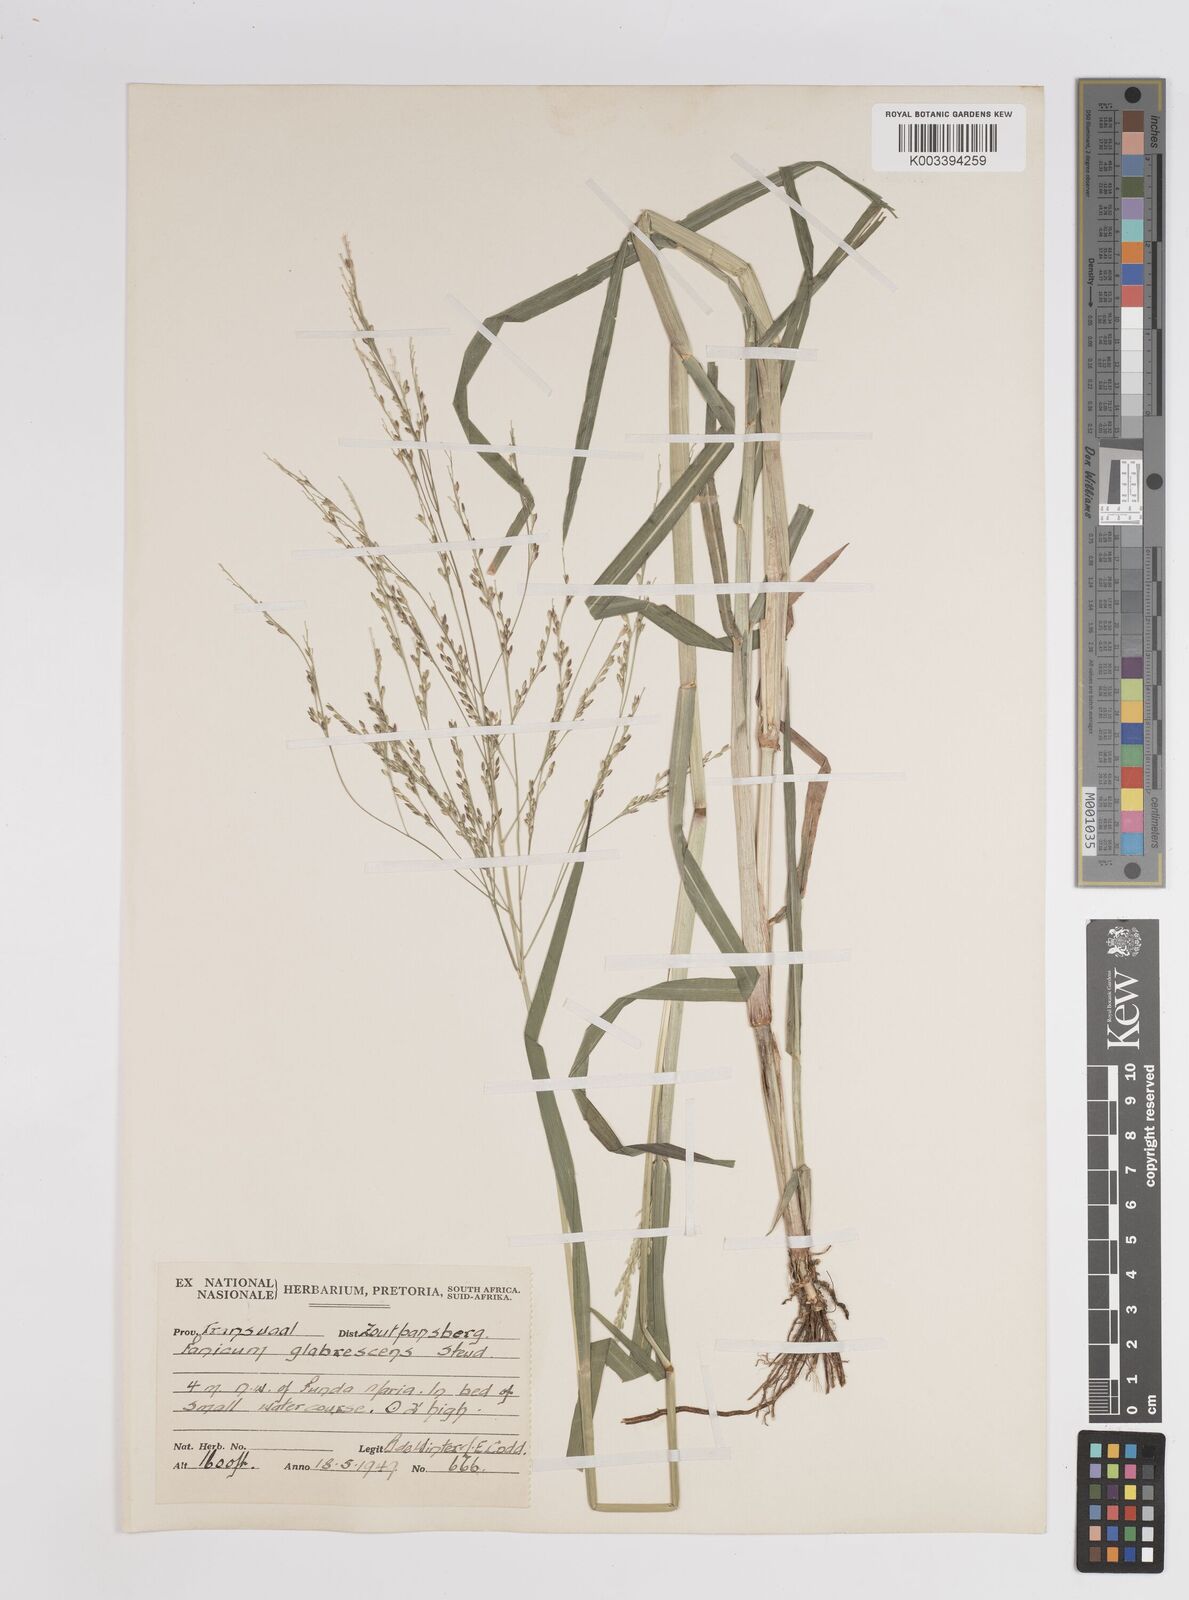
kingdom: Plantae
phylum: Tracheophyta
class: Liliopsida
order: Poales
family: Poaceae
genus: Panicum
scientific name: Panicum subalbidum
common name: Elbow buffalo grass
